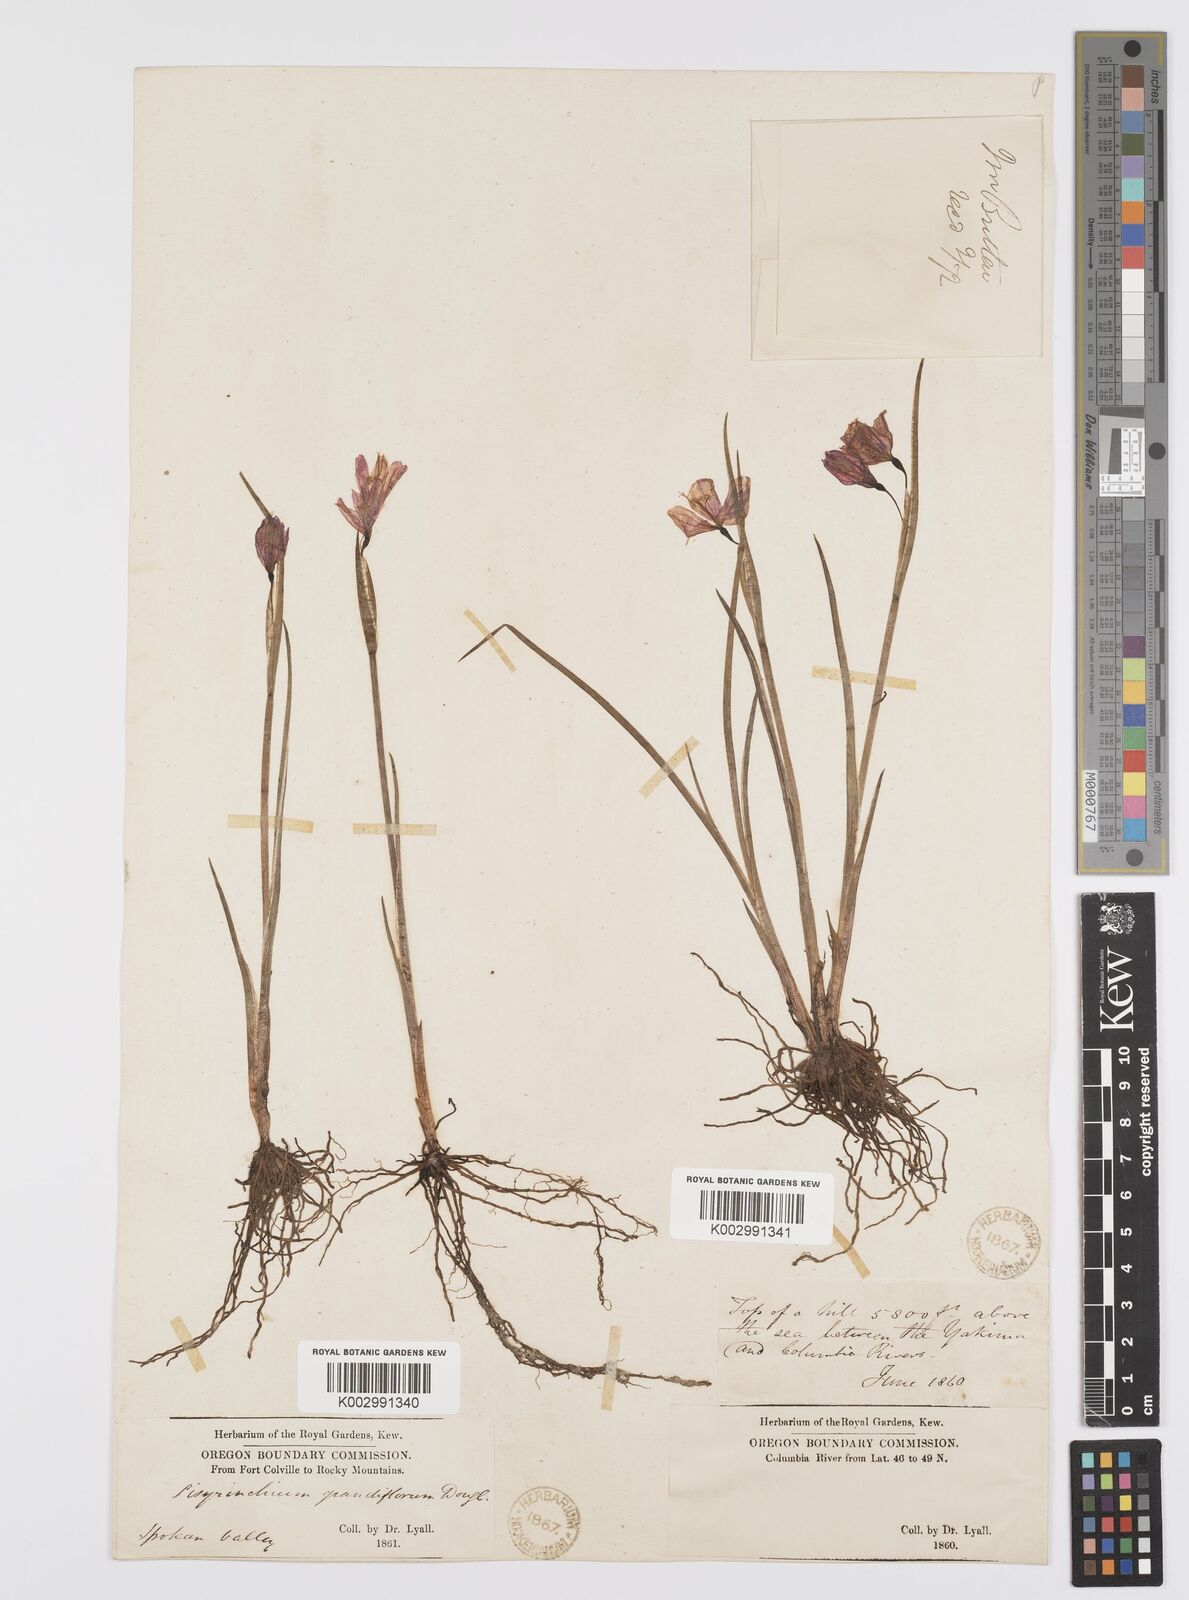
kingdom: Plantae
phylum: Tracheophyta
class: Liliopsida
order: Asparagales
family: Iridaceae
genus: Olsynium
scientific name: Olsynium douglasii
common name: Douglas' grasswidow
